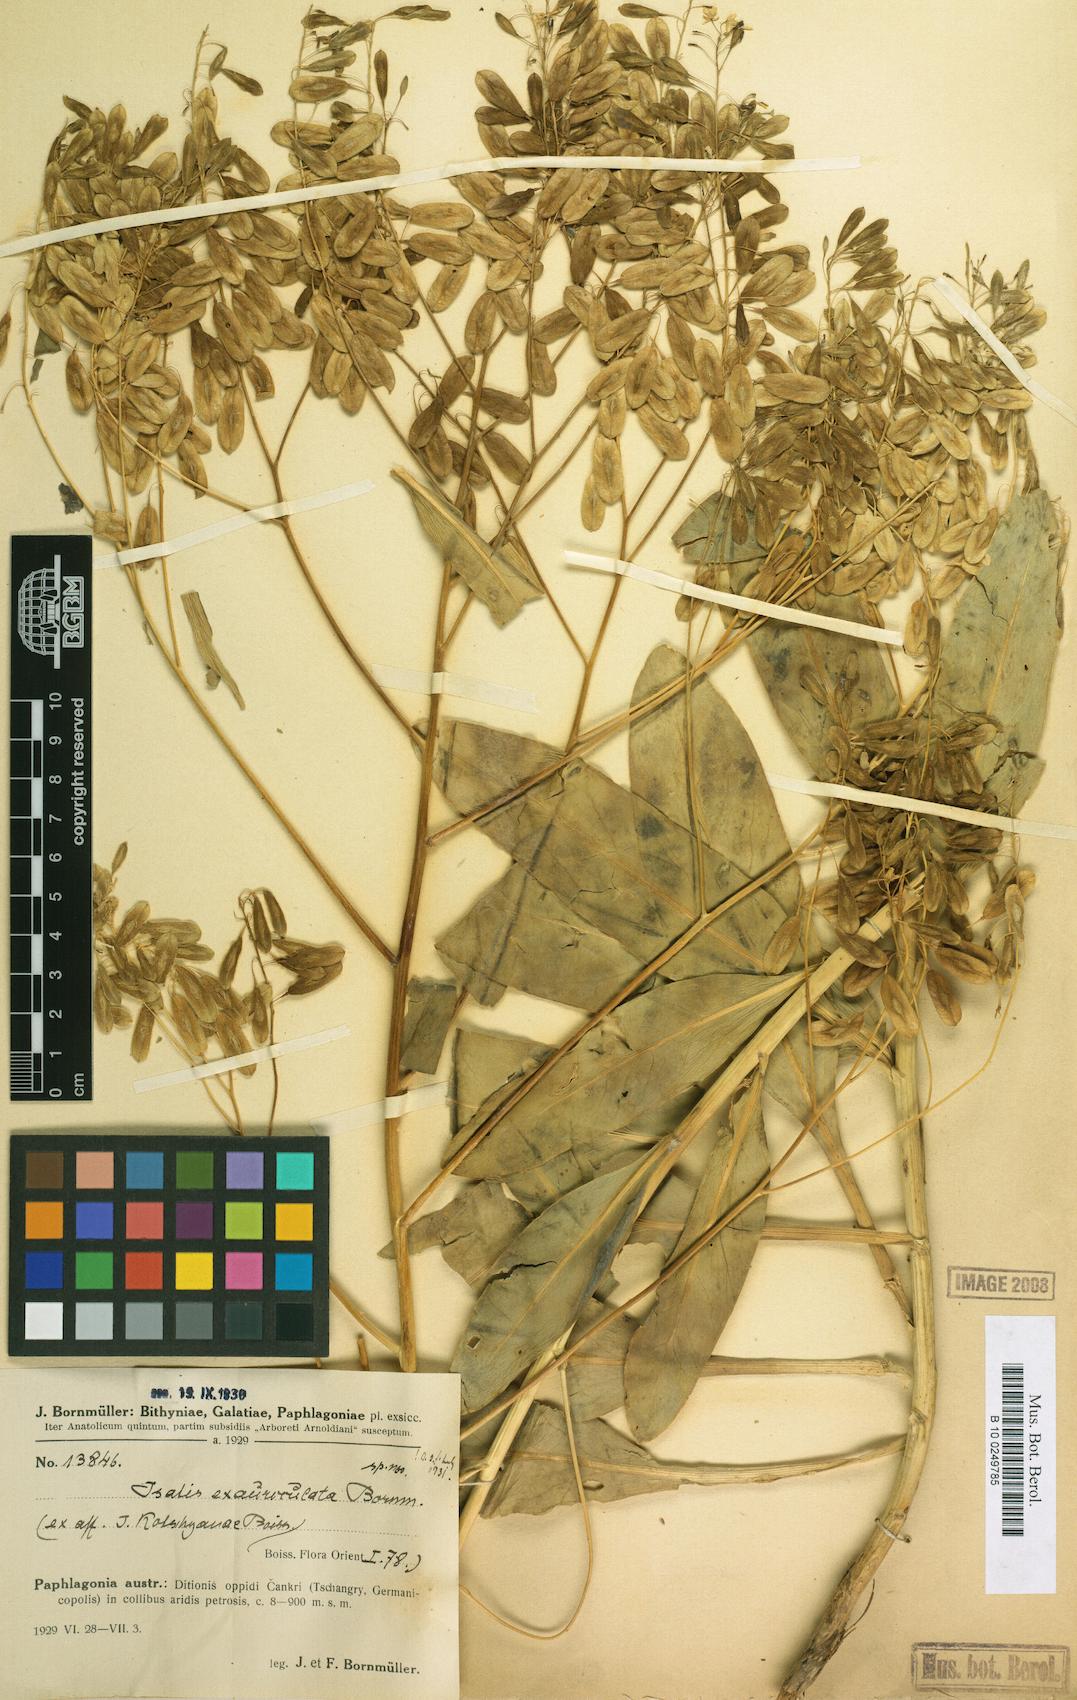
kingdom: Plantae
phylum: Tracheophyta
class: Magnoliopsida
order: Brassicales
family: Brassicaceae
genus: Isatis
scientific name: Isatis glauca
